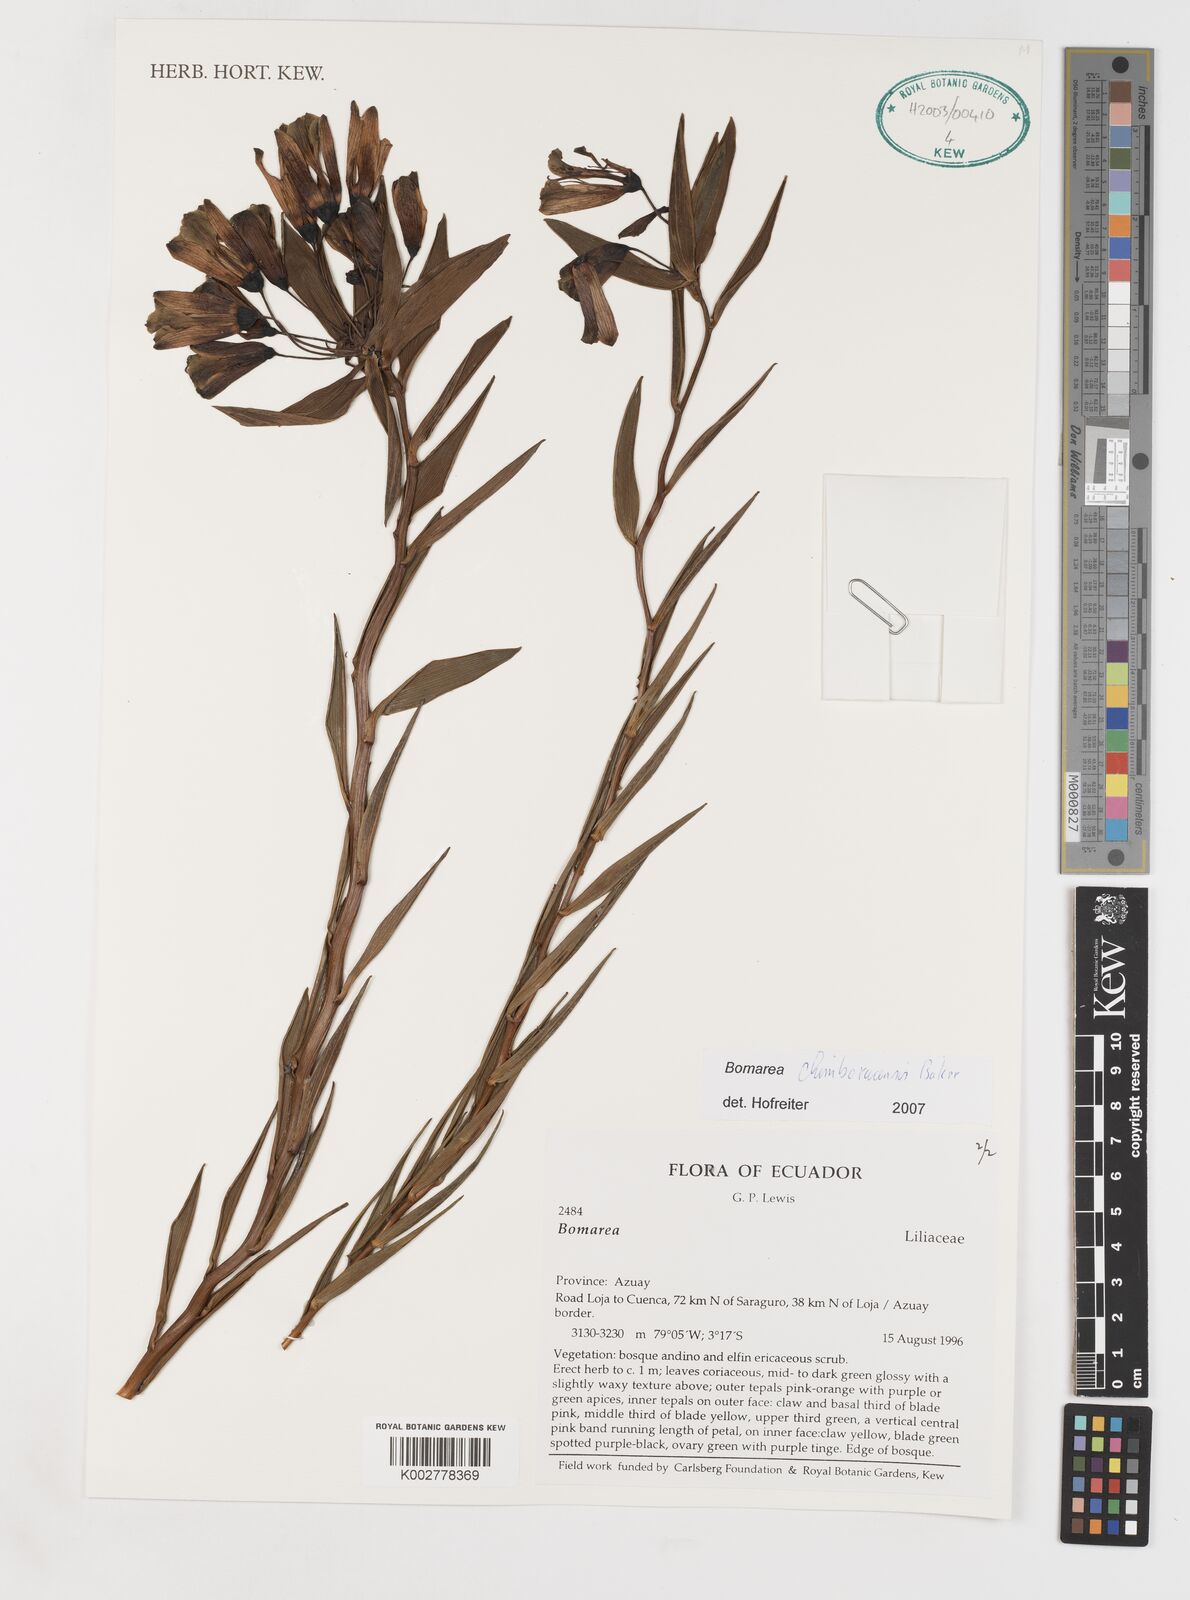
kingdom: Plantae
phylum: Tracheophyta
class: Liliopsida
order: Liliales
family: Alstroemeriaceae
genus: Bomarea
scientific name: Bomarea chimboracensis
